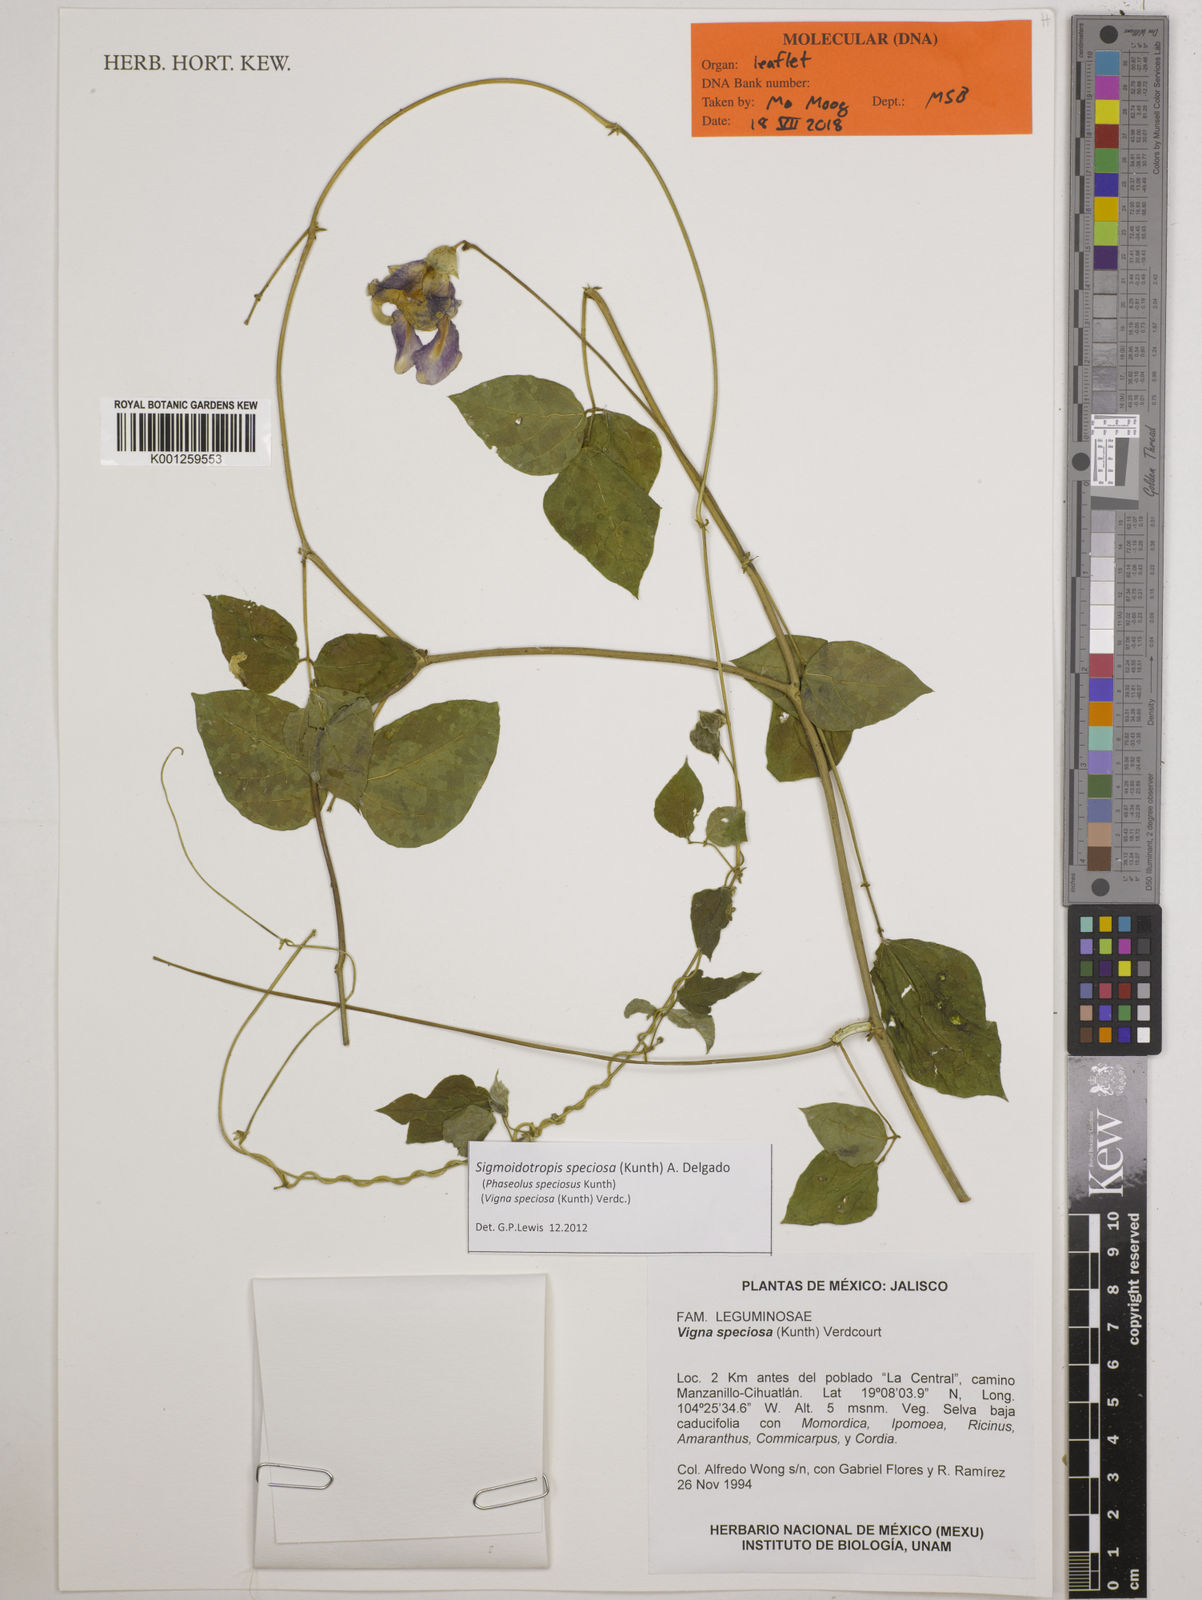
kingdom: Plantae
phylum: Tracheophyta
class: Magnoliopsida
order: Fabales
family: Fabaceae
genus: Sigmoidotropis
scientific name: Sigmoidotropis speciosa
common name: Snail flower
